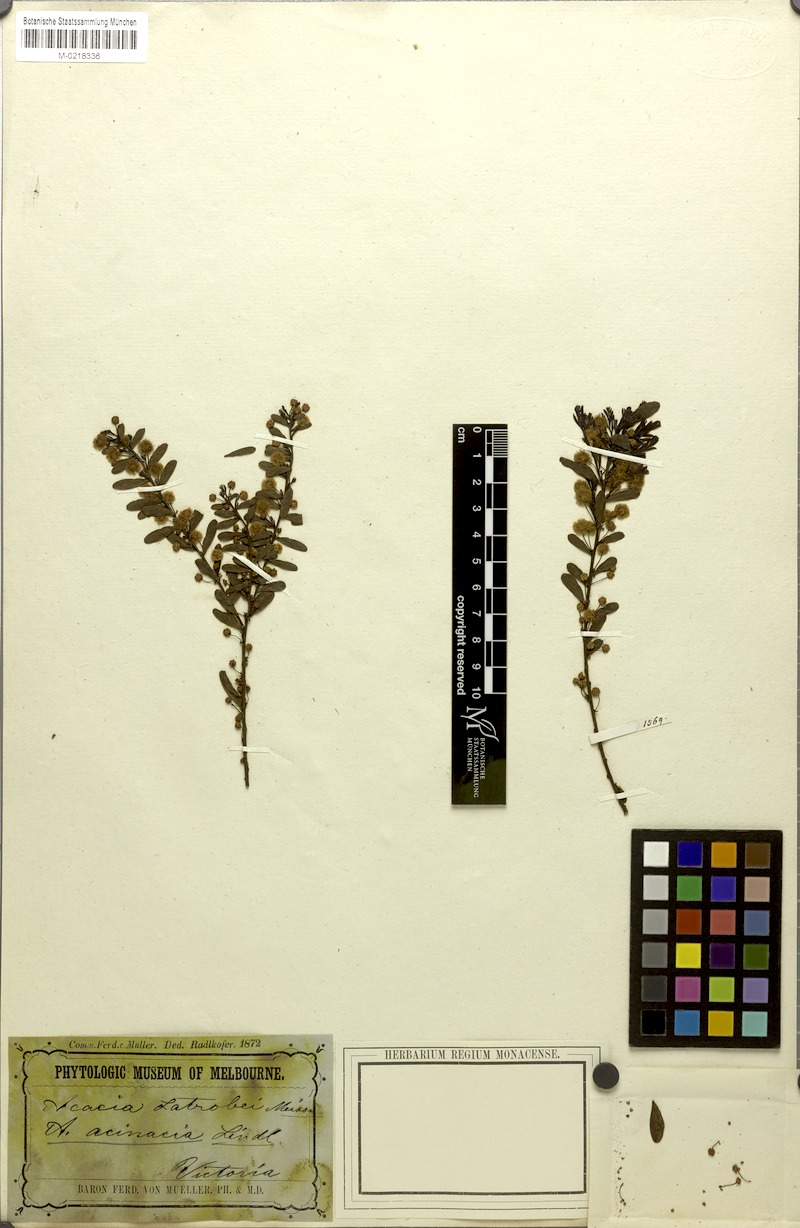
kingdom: Plantae
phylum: Tracheophyta
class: Magnoliopsida
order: Fabales
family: Fabaceae
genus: Acacia
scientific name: Acacia acinacea
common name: Gold-dust acacia
